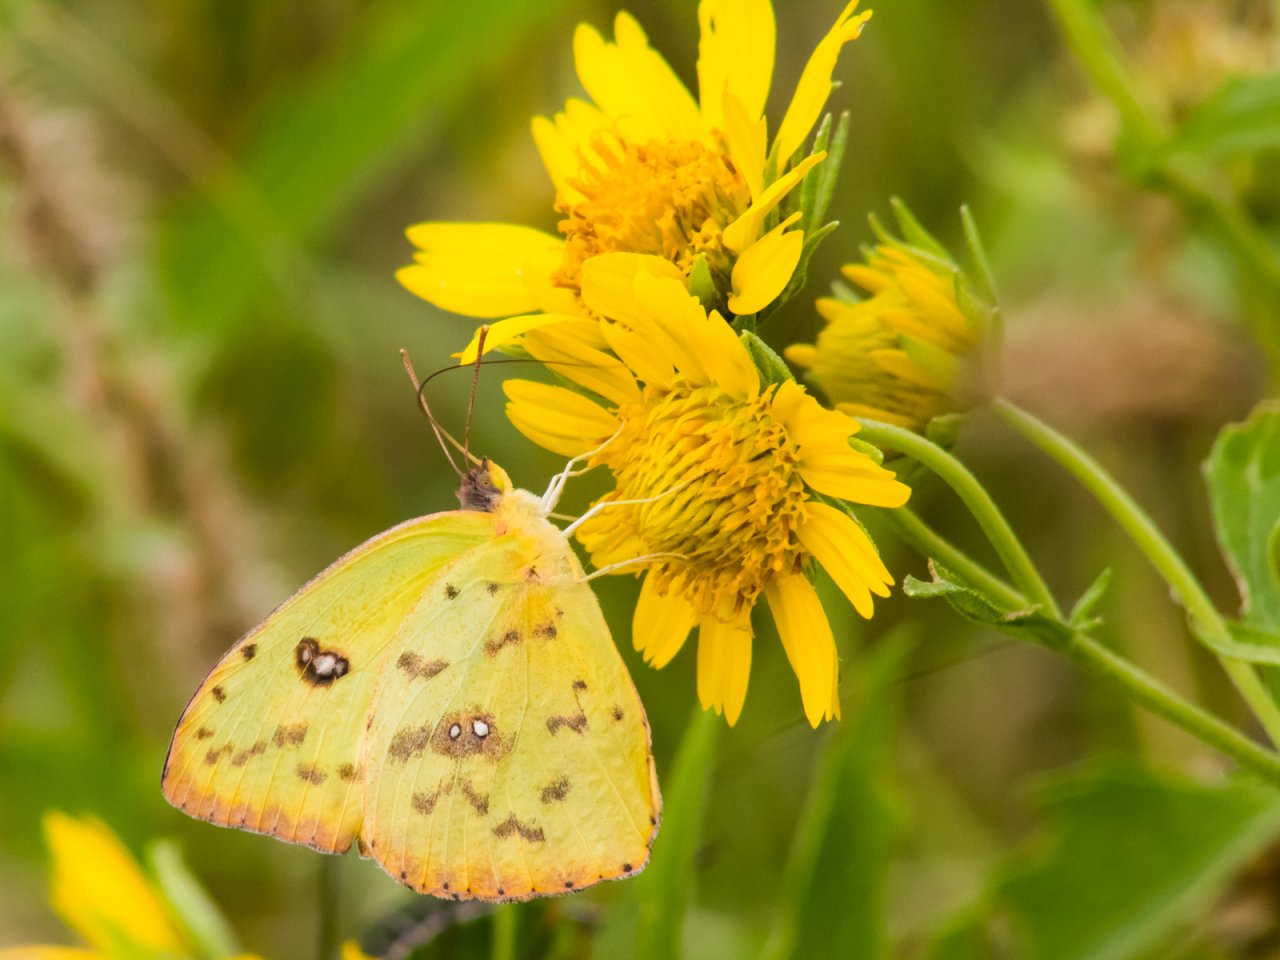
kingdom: Animalia
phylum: Arthropoda
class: Insecta
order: Lepidoptera
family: Pieridae
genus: Phoebis
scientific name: Phoebis sennae
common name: Cloudless Sulphur
